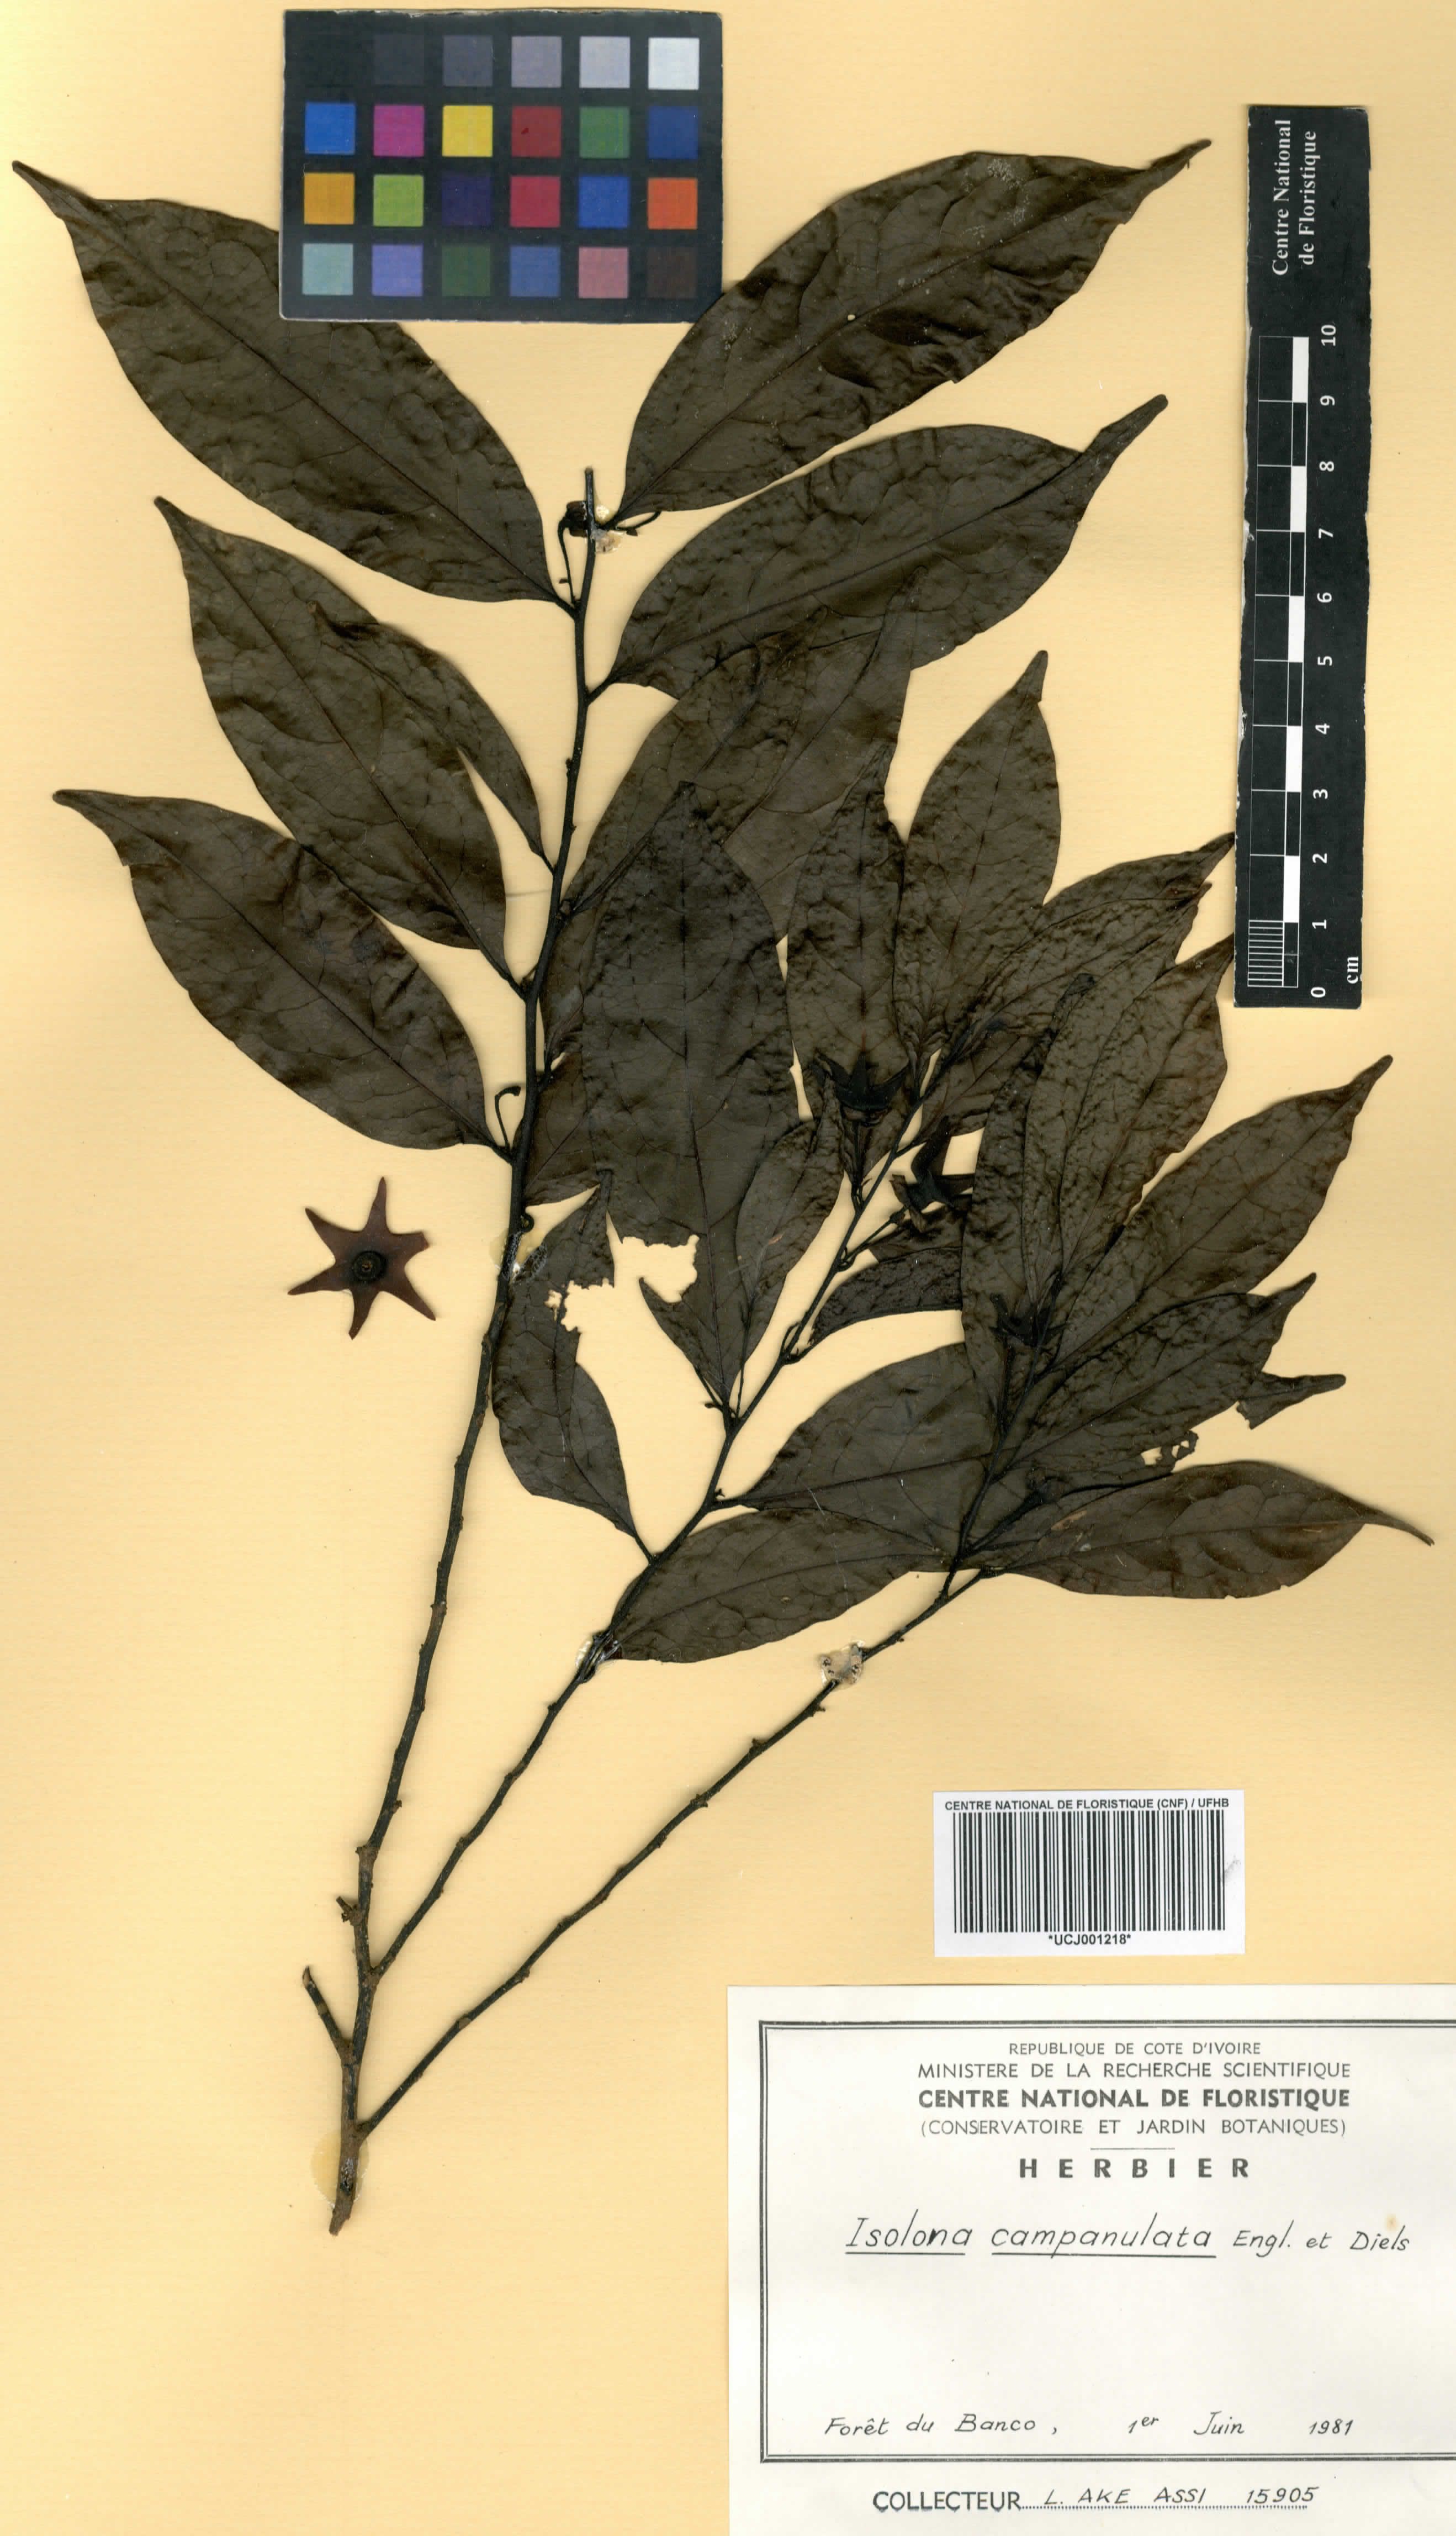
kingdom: Plantae
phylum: Tracheophyta
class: Magnoliopsida
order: Magnoliales
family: Annonaceae
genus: Isolona
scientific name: Isolona campanulata
